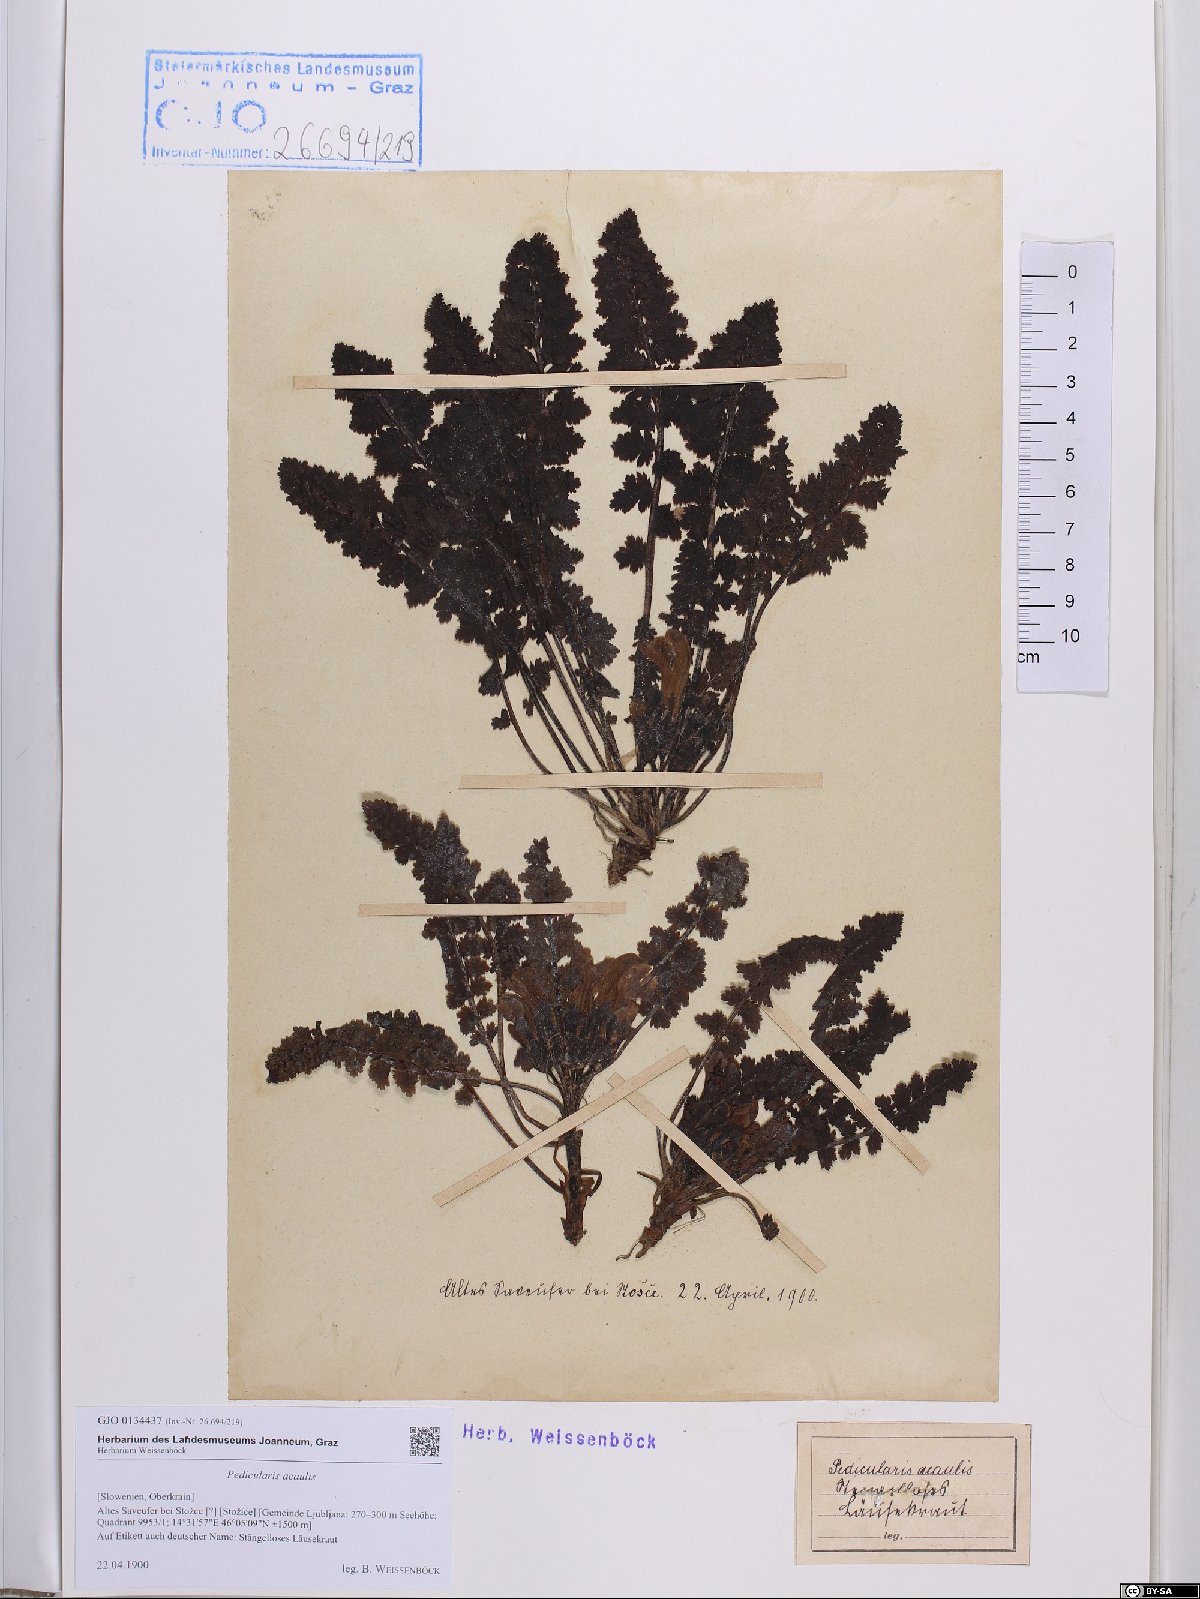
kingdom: Plantae
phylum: Tracheophyta
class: Magnoliopsida
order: Lamiales
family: Orobanchaceae
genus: Pedicularis
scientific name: Pedicularis acaulis
